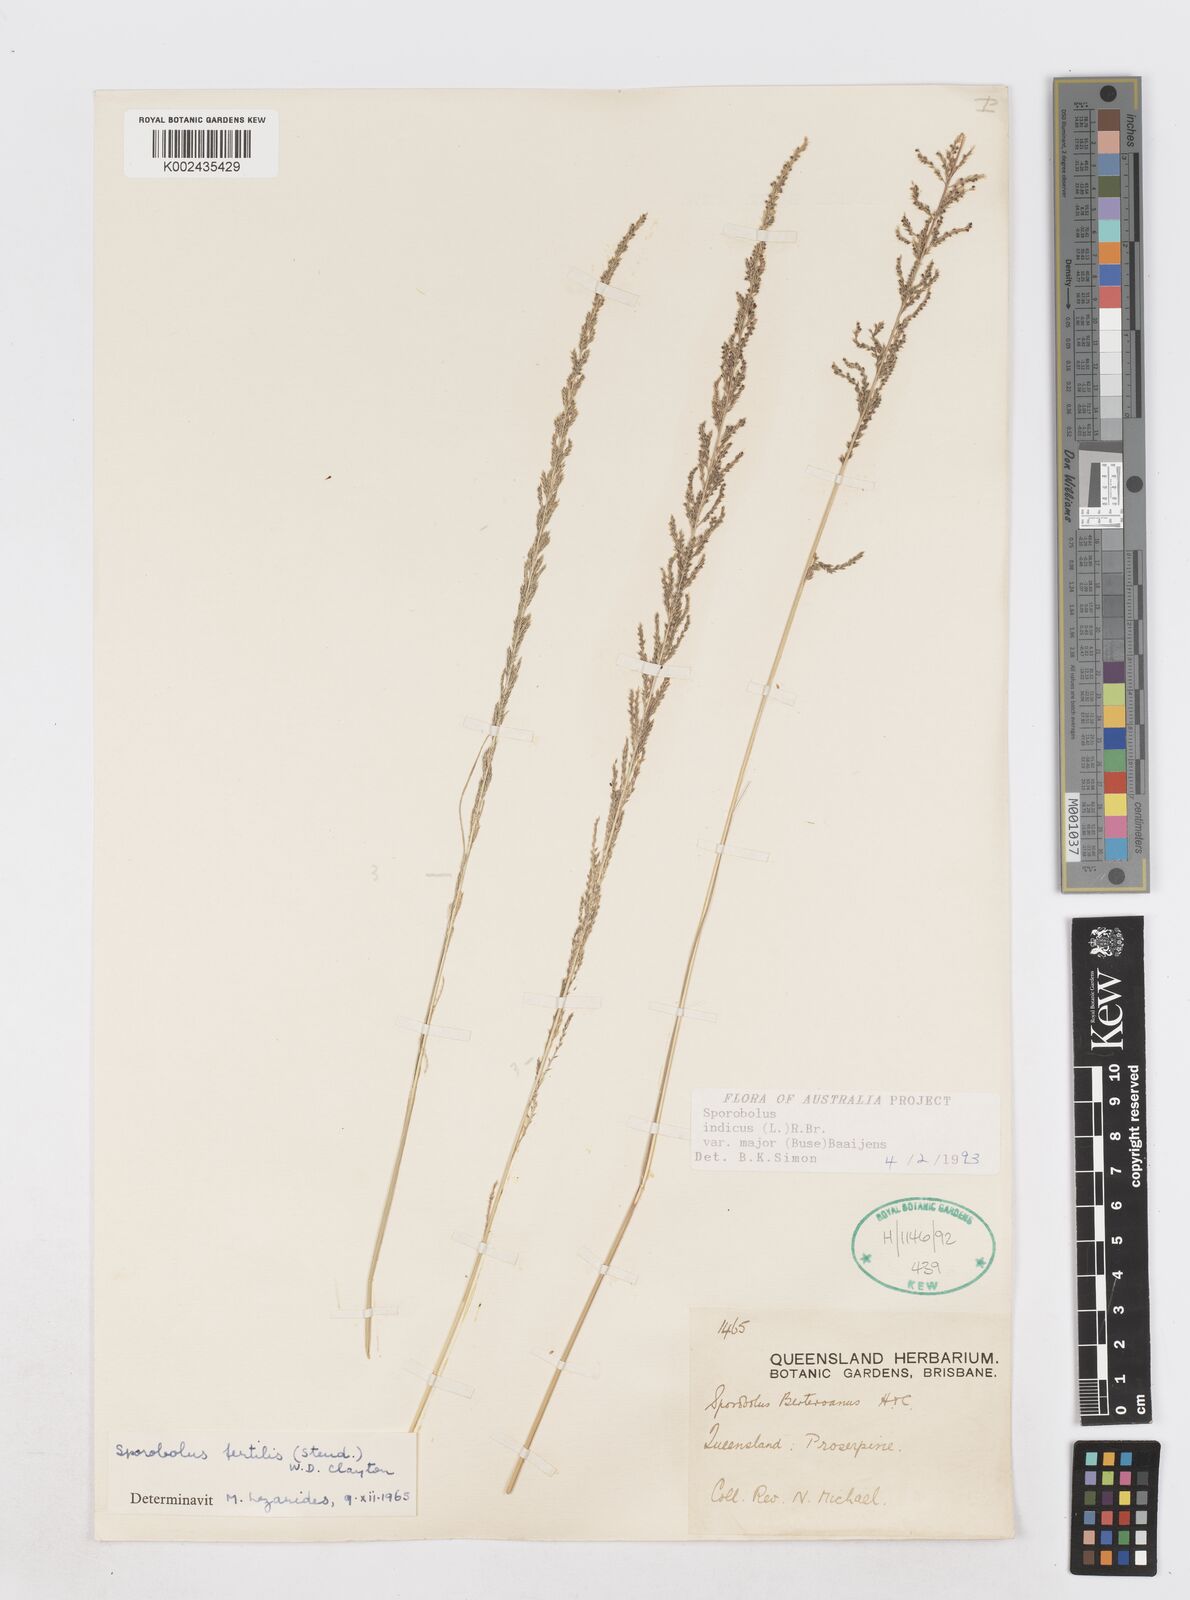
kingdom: Plantae
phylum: Tracheophyta
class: Liliopsida
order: Poales
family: Poaceae
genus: Sporobolus
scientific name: Sporobolus fertilis
